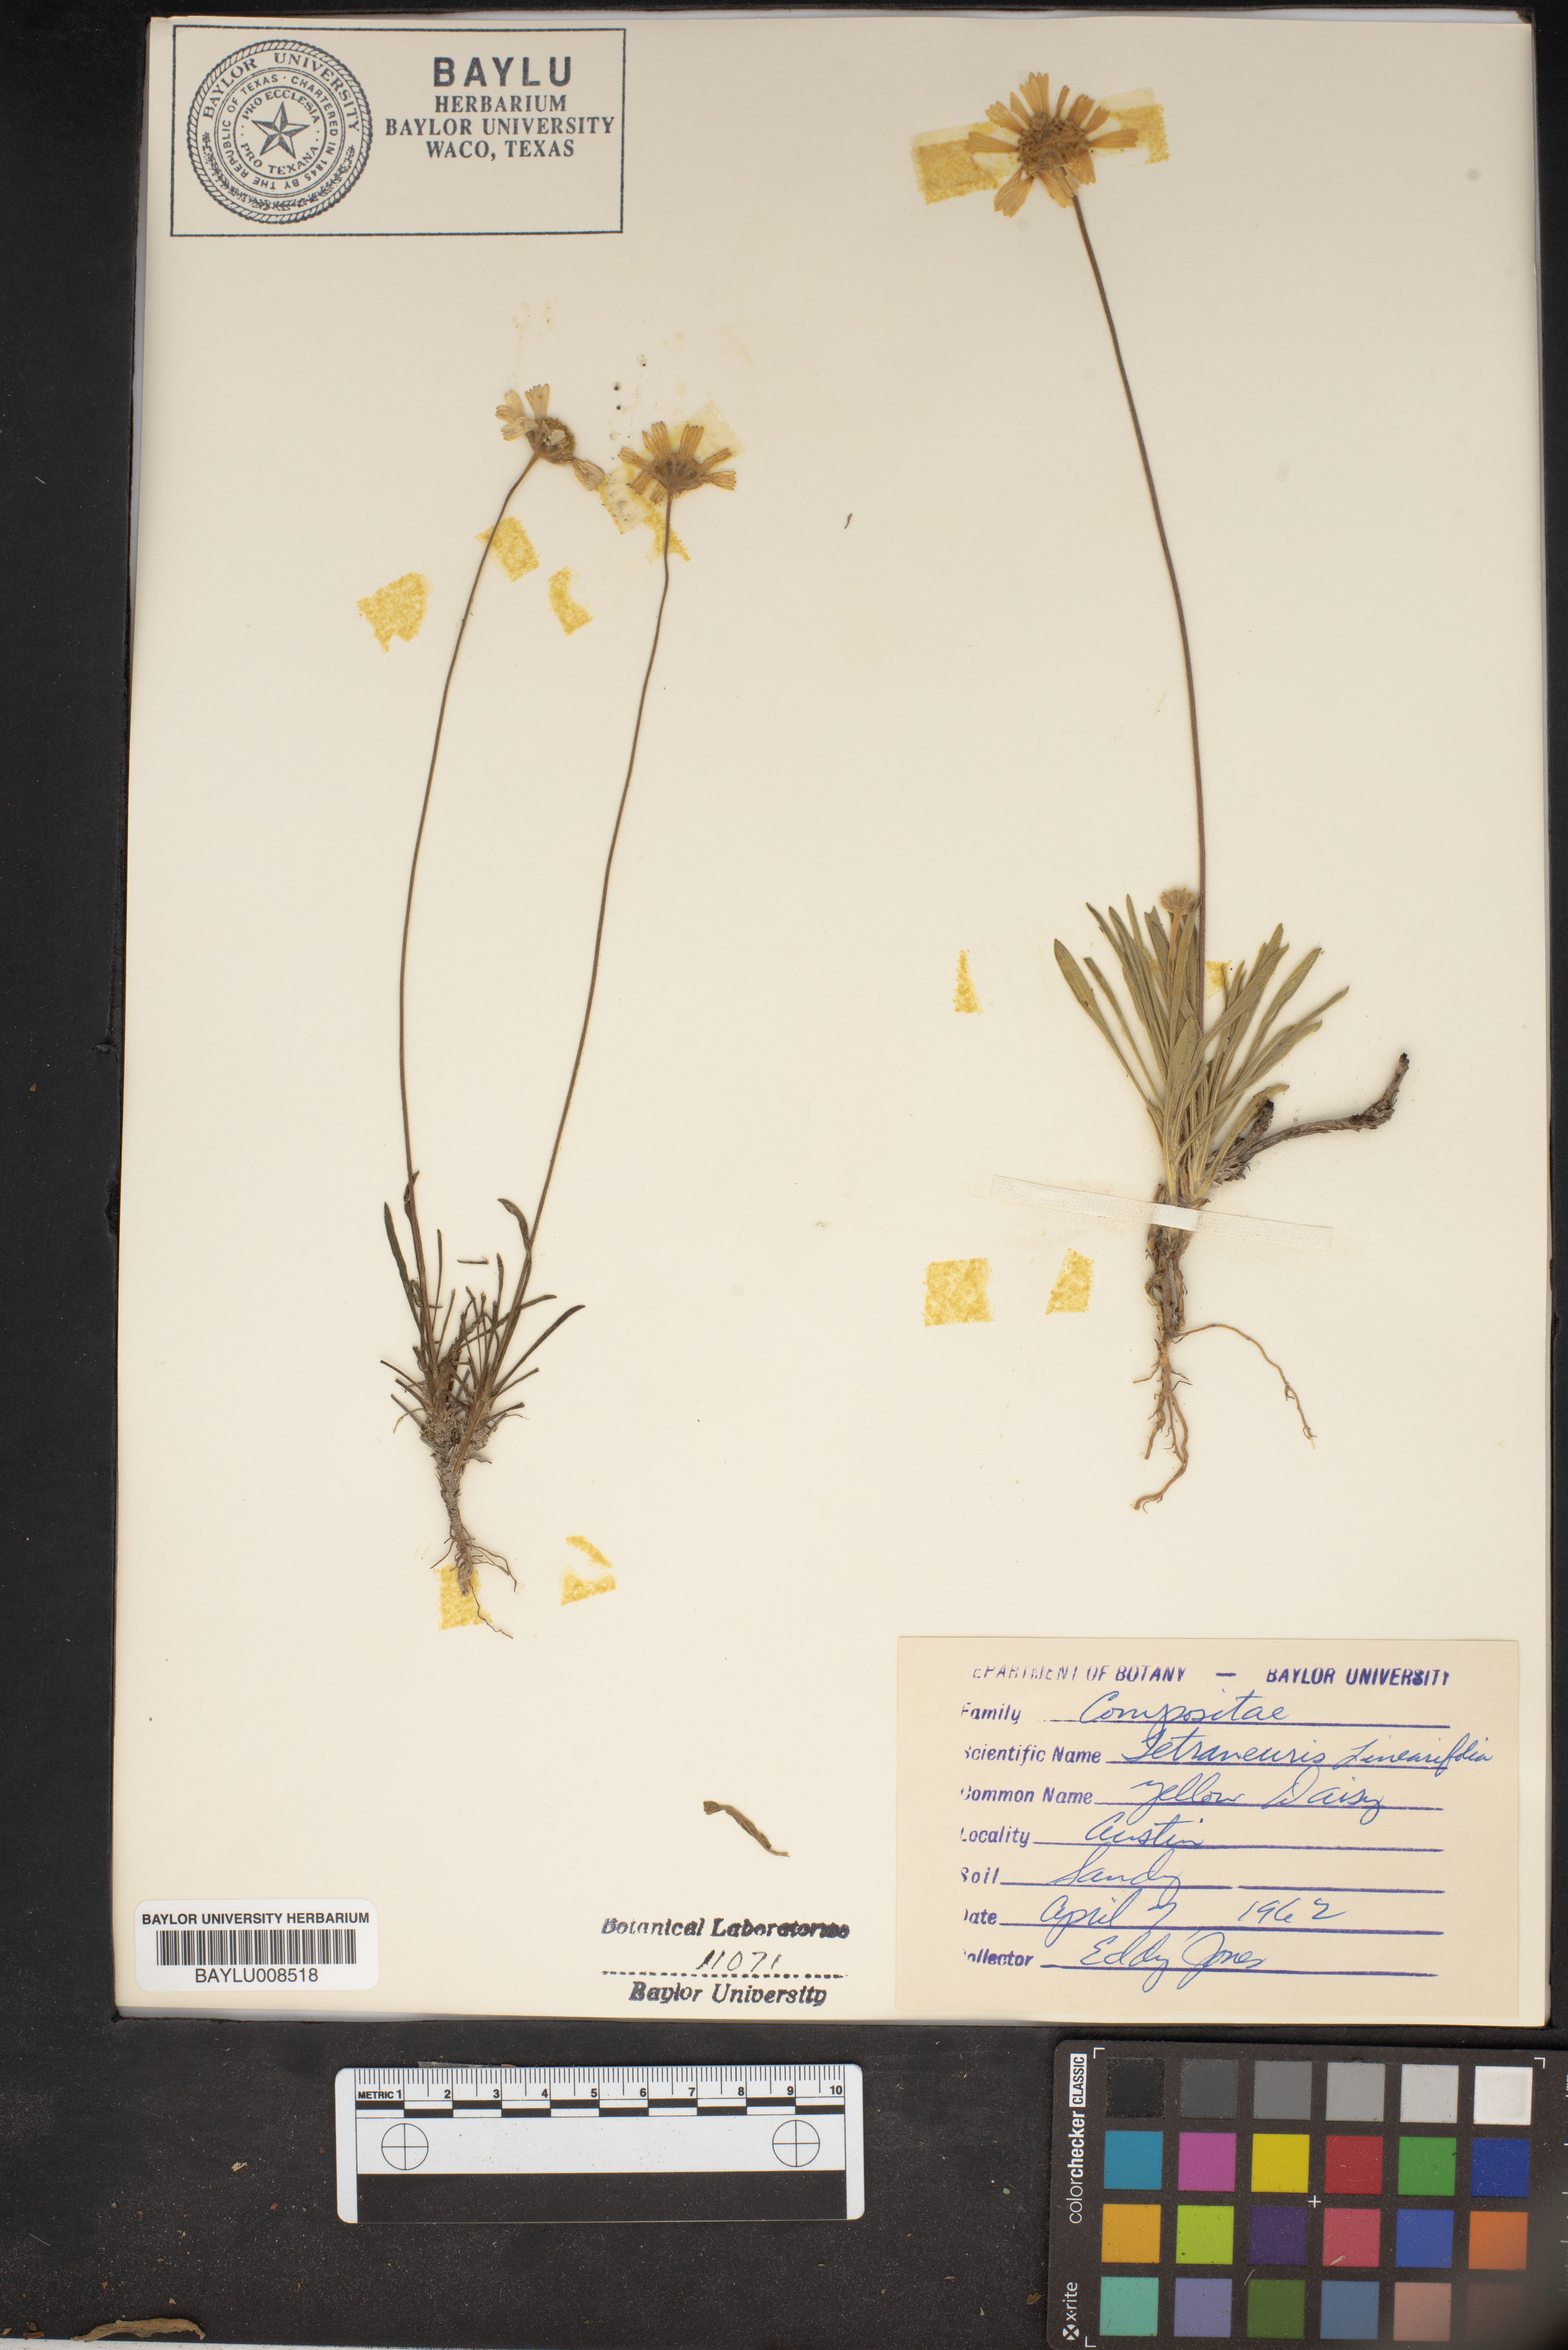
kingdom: Plantae
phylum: Tracheophyta
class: Magnoliopsida
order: Asterales
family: Asteraceae
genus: Tetraneuris
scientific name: Tetraneuris linearifolia
